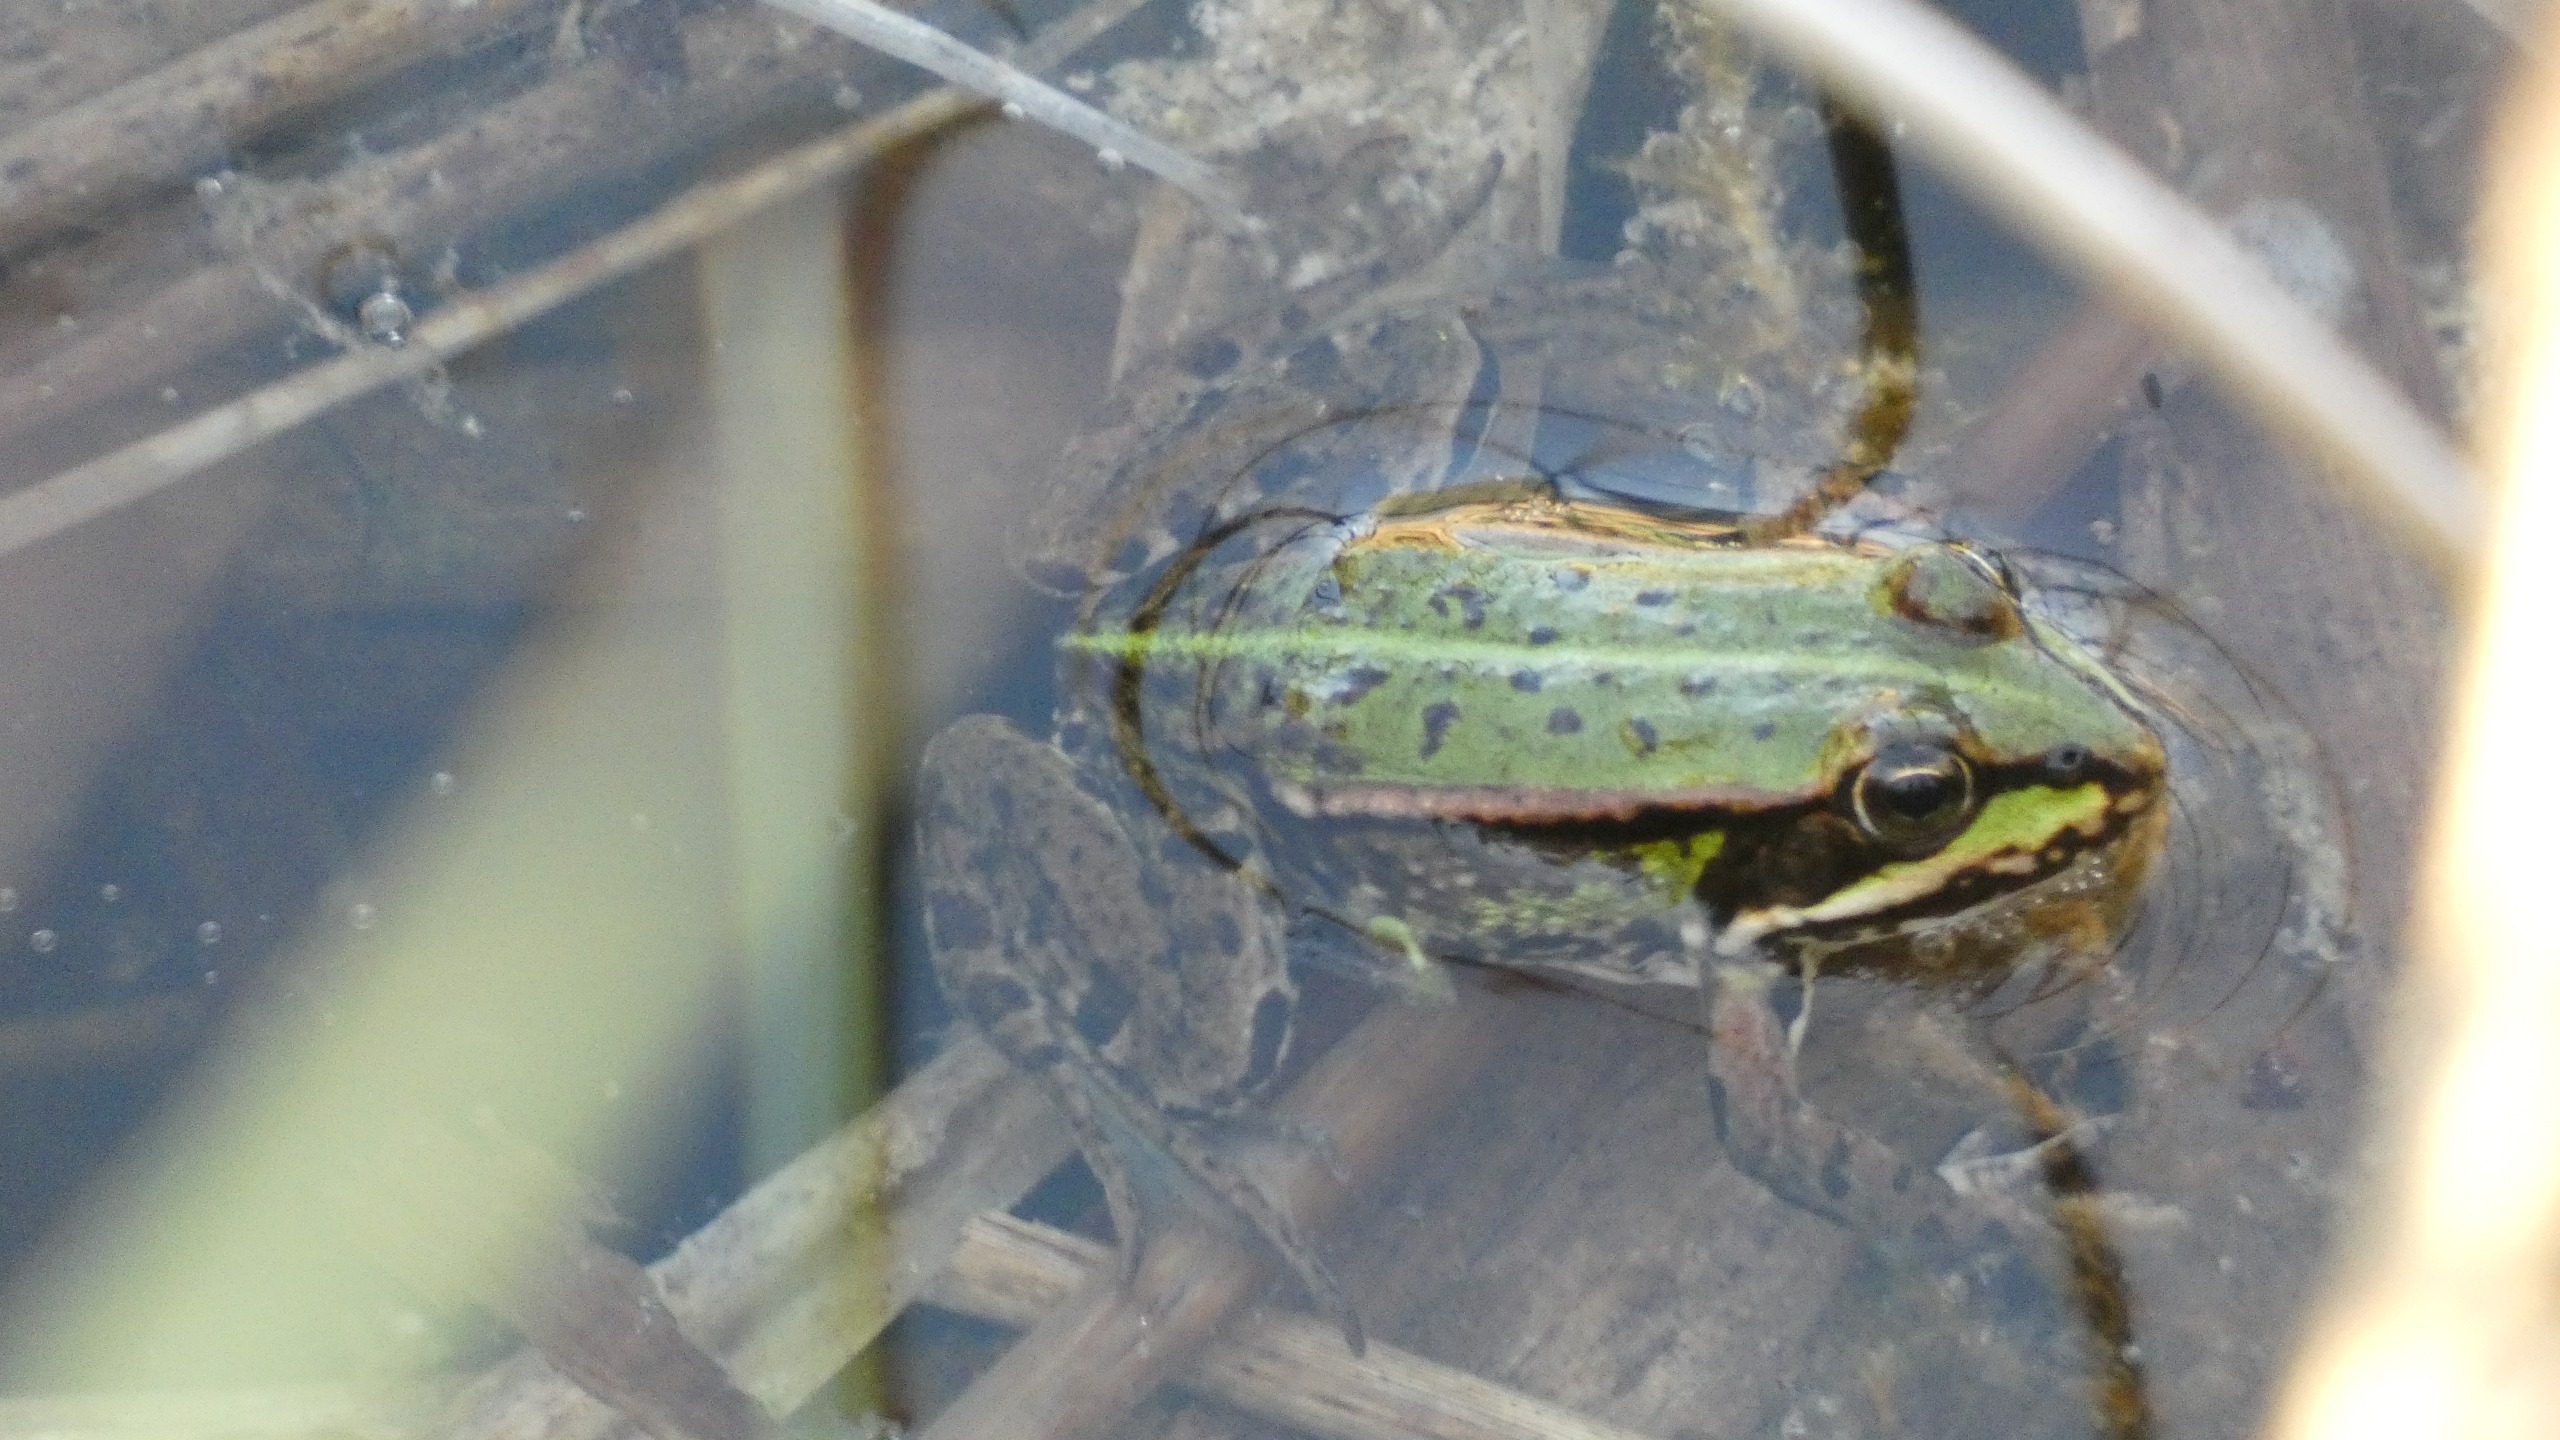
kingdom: Animalia
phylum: Chordata
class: Amphibia
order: Anura
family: Ranidae
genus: Pelophylax
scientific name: Pelophylax lessonae
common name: Grøn frø
